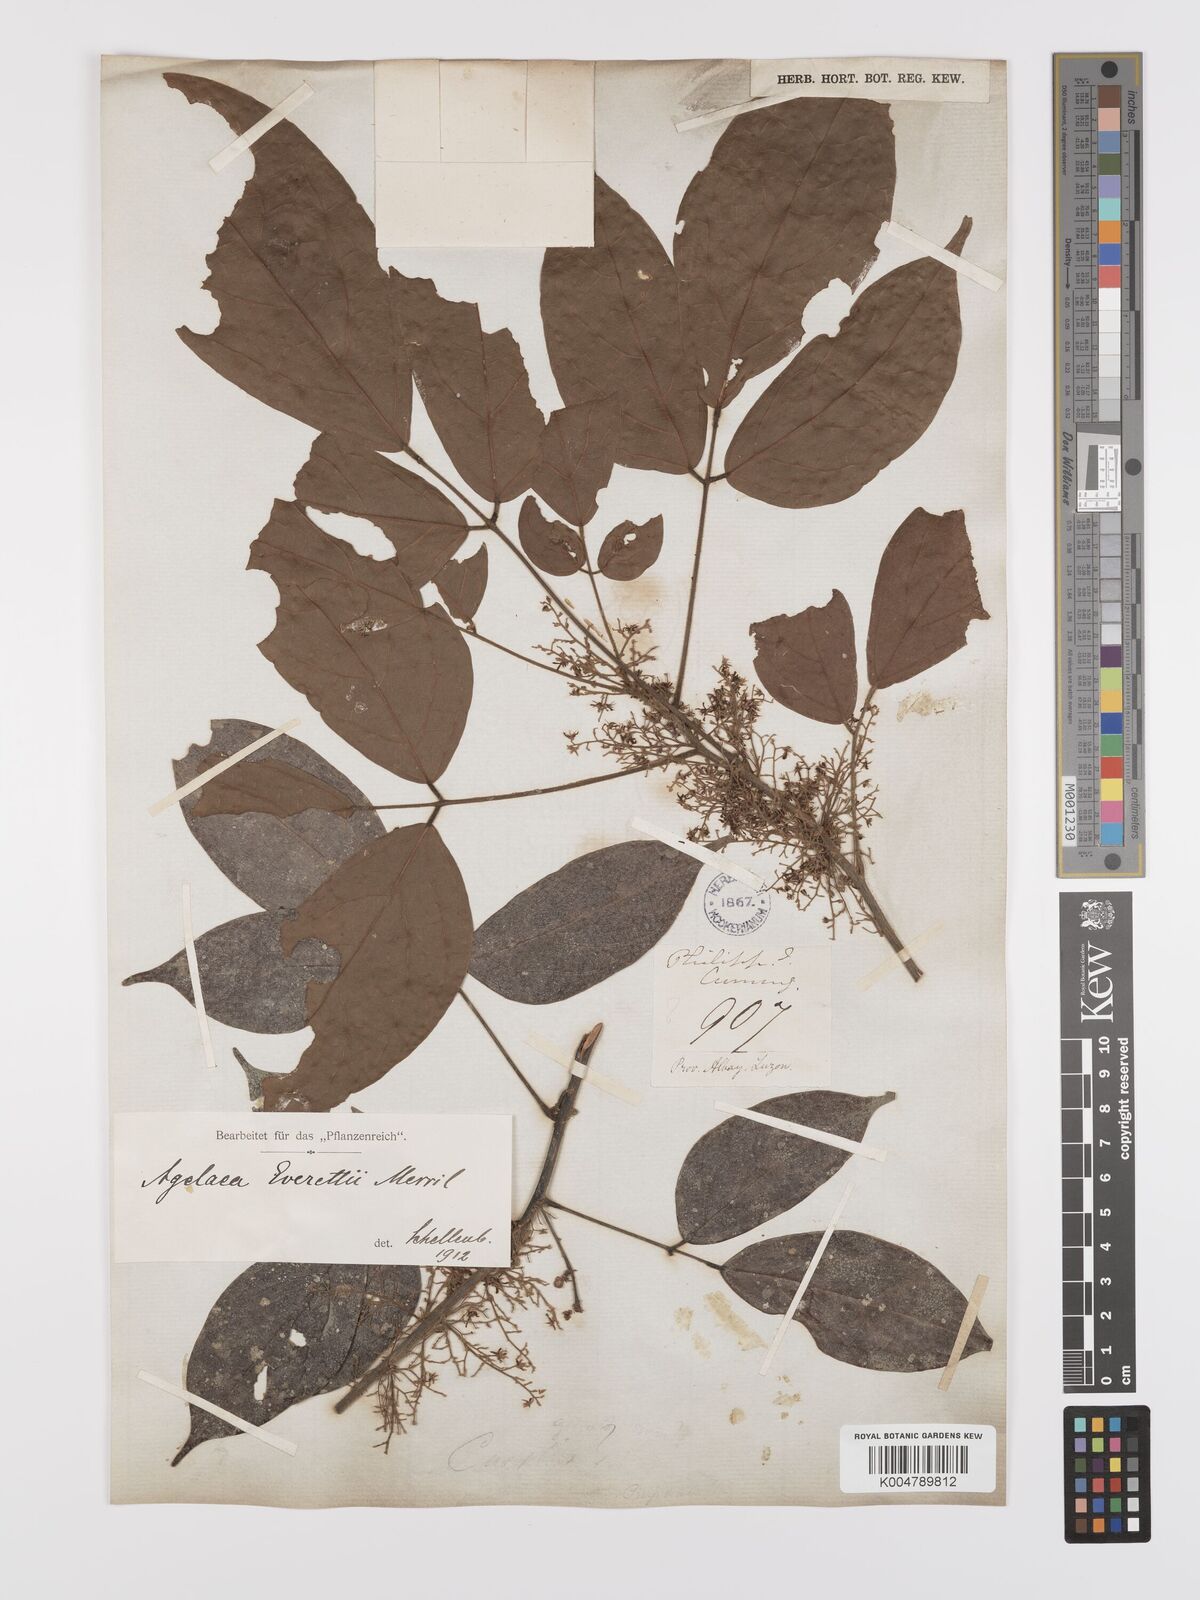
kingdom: Plantae
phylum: Tracheophyta
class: Magnoliopsida
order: Oxalidales
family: Connaraceae
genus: Agelaea
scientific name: Agelaea borneensis
